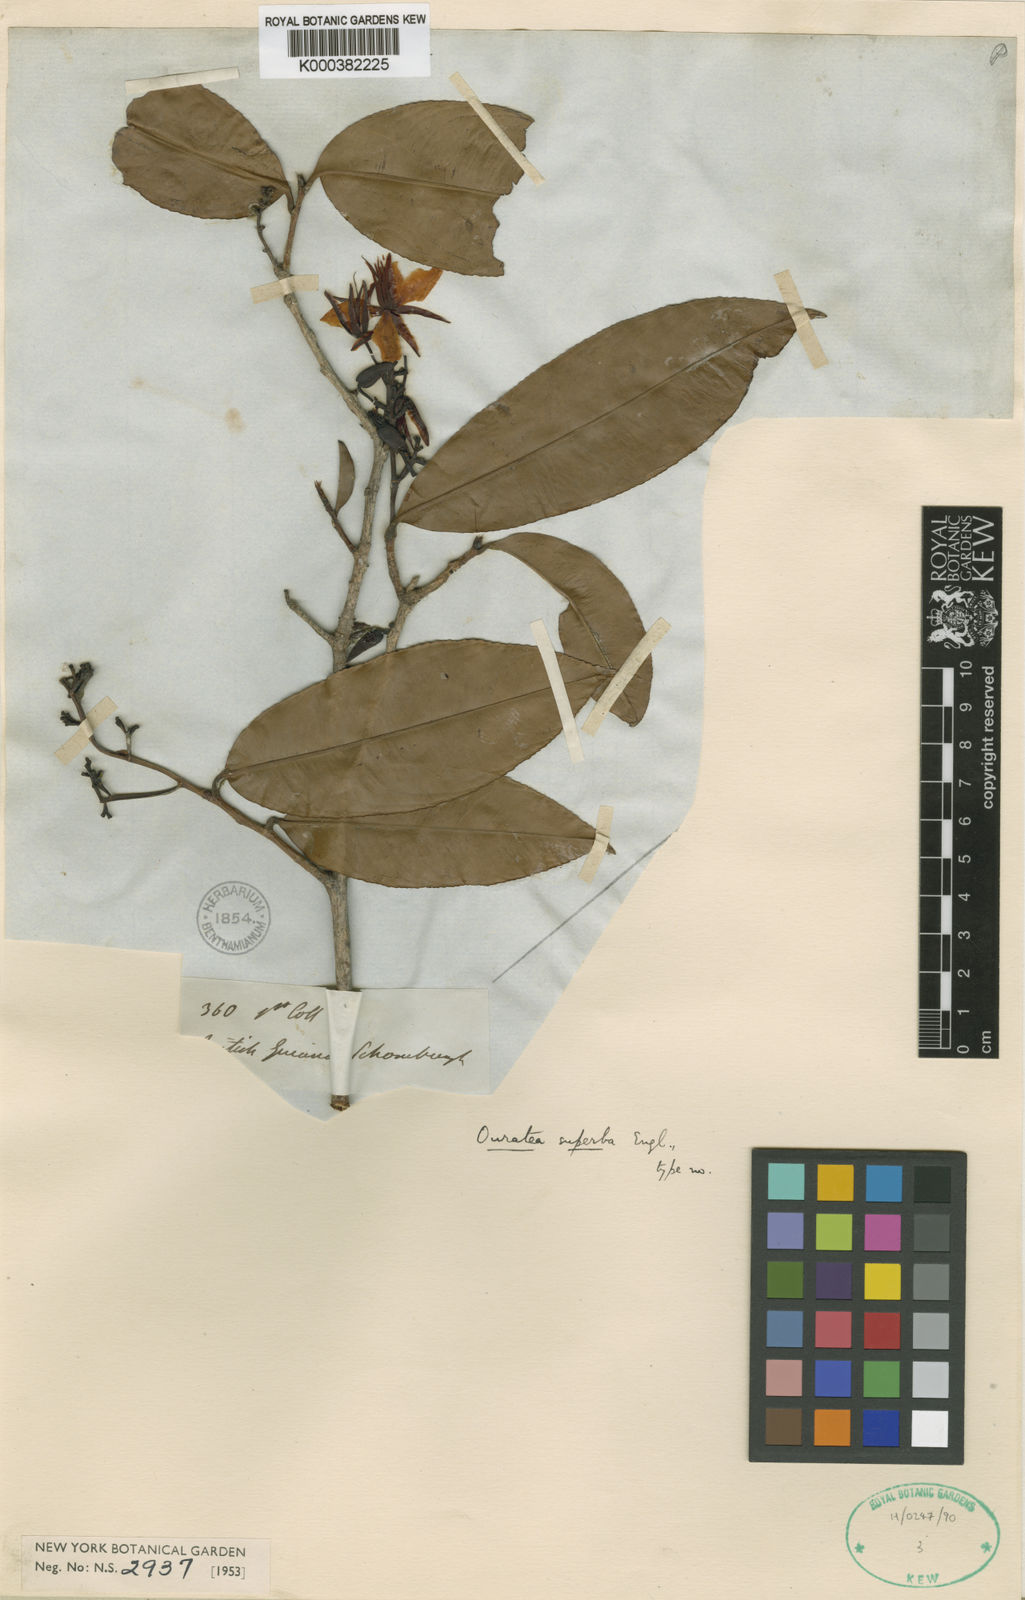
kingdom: Plantae
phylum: Tracheophyta
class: Magnoliopsida
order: Malpighiales
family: Ochnaceae
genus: Ouratea
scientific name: Ouratea superba
